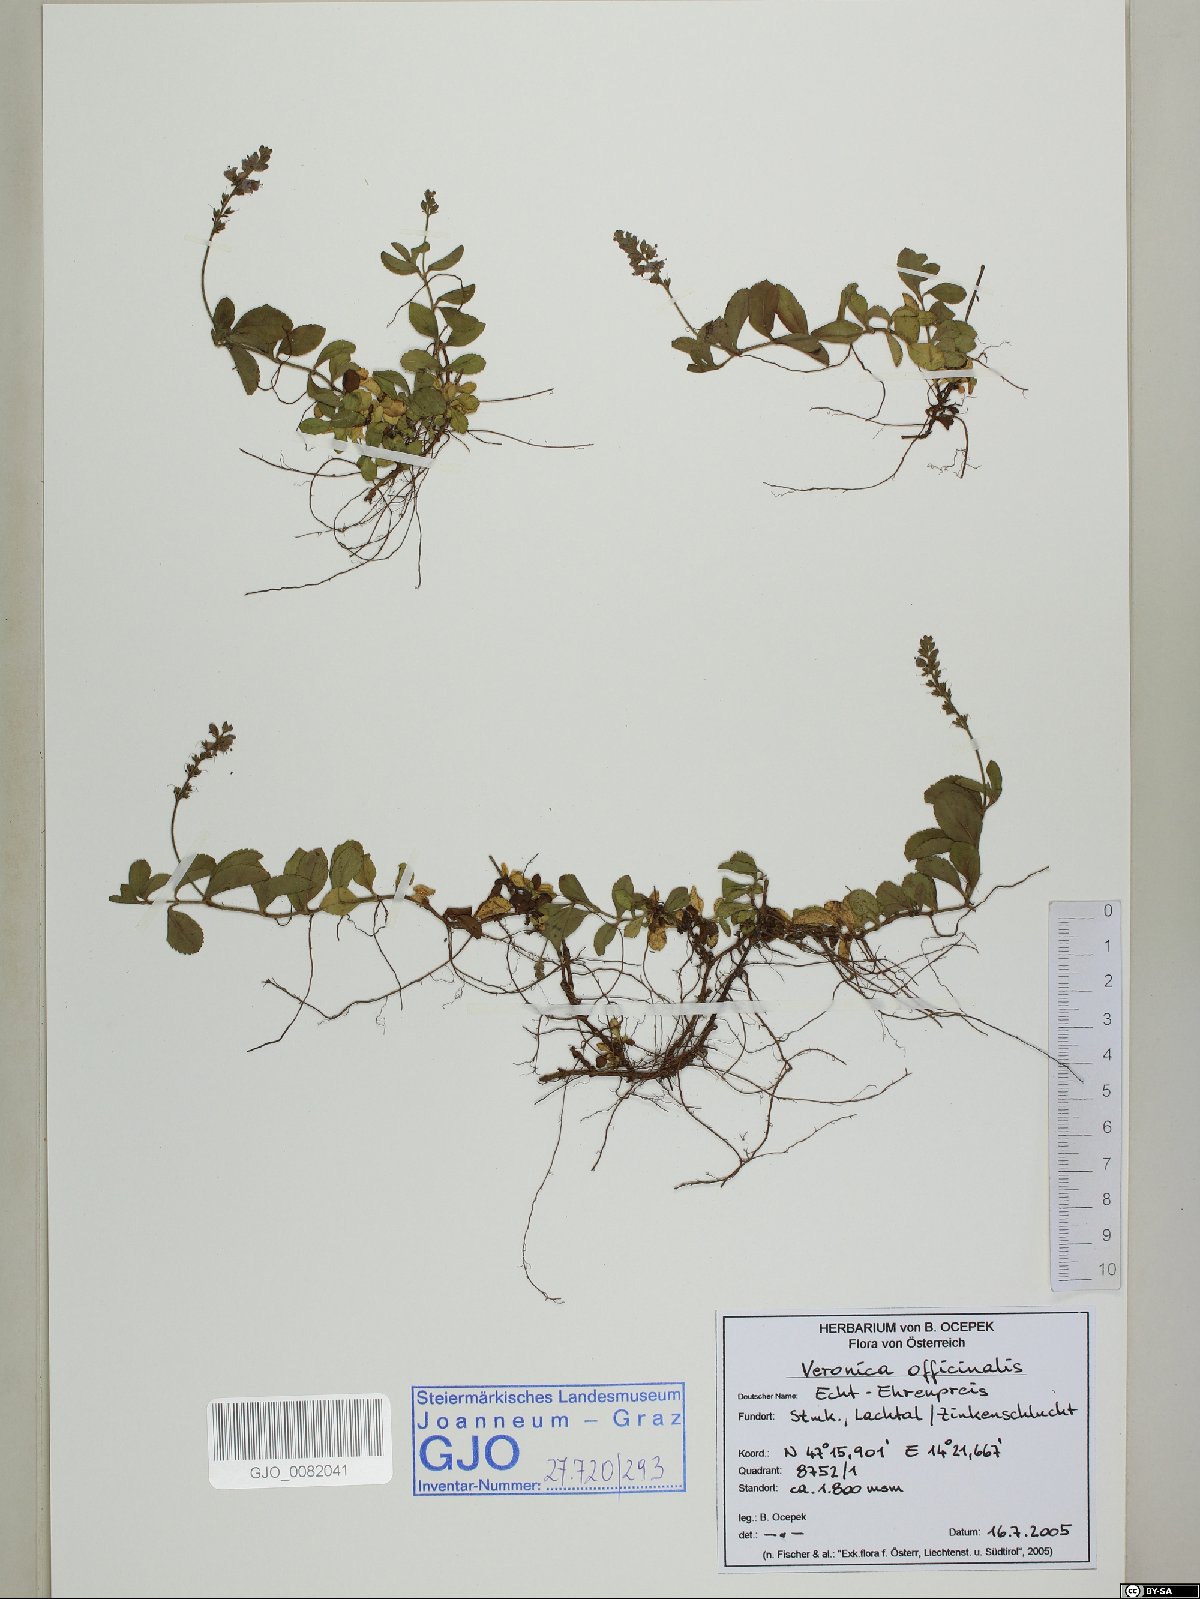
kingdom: Plantae
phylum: Tracheophyta
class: Magnoliopsida
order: Lamiales
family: Plantaginaceae
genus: Veronica
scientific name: Veronica officinalis
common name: Common speedwell
